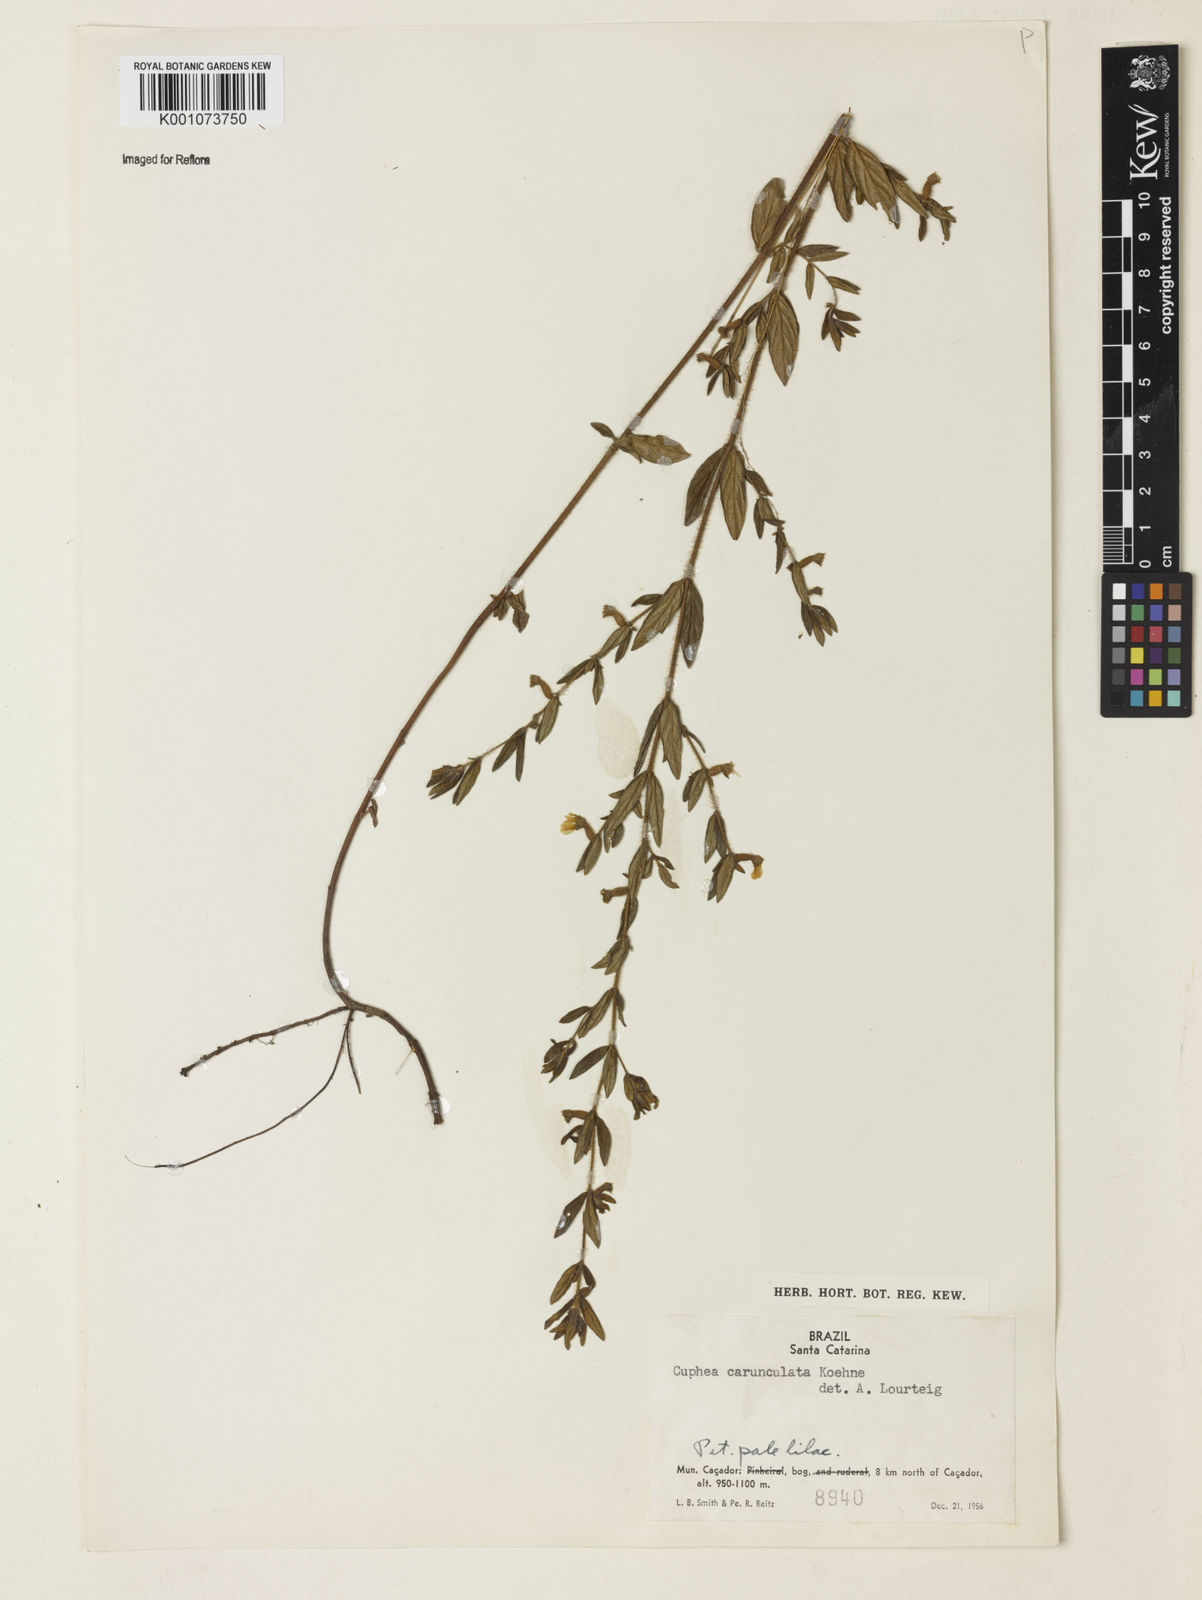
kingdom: Plantae
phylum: Tracheophyta
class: Magnoliopsida
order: Myrtales
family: Lythraceae
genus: Cuphea
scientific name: Cuphea urbaniana
